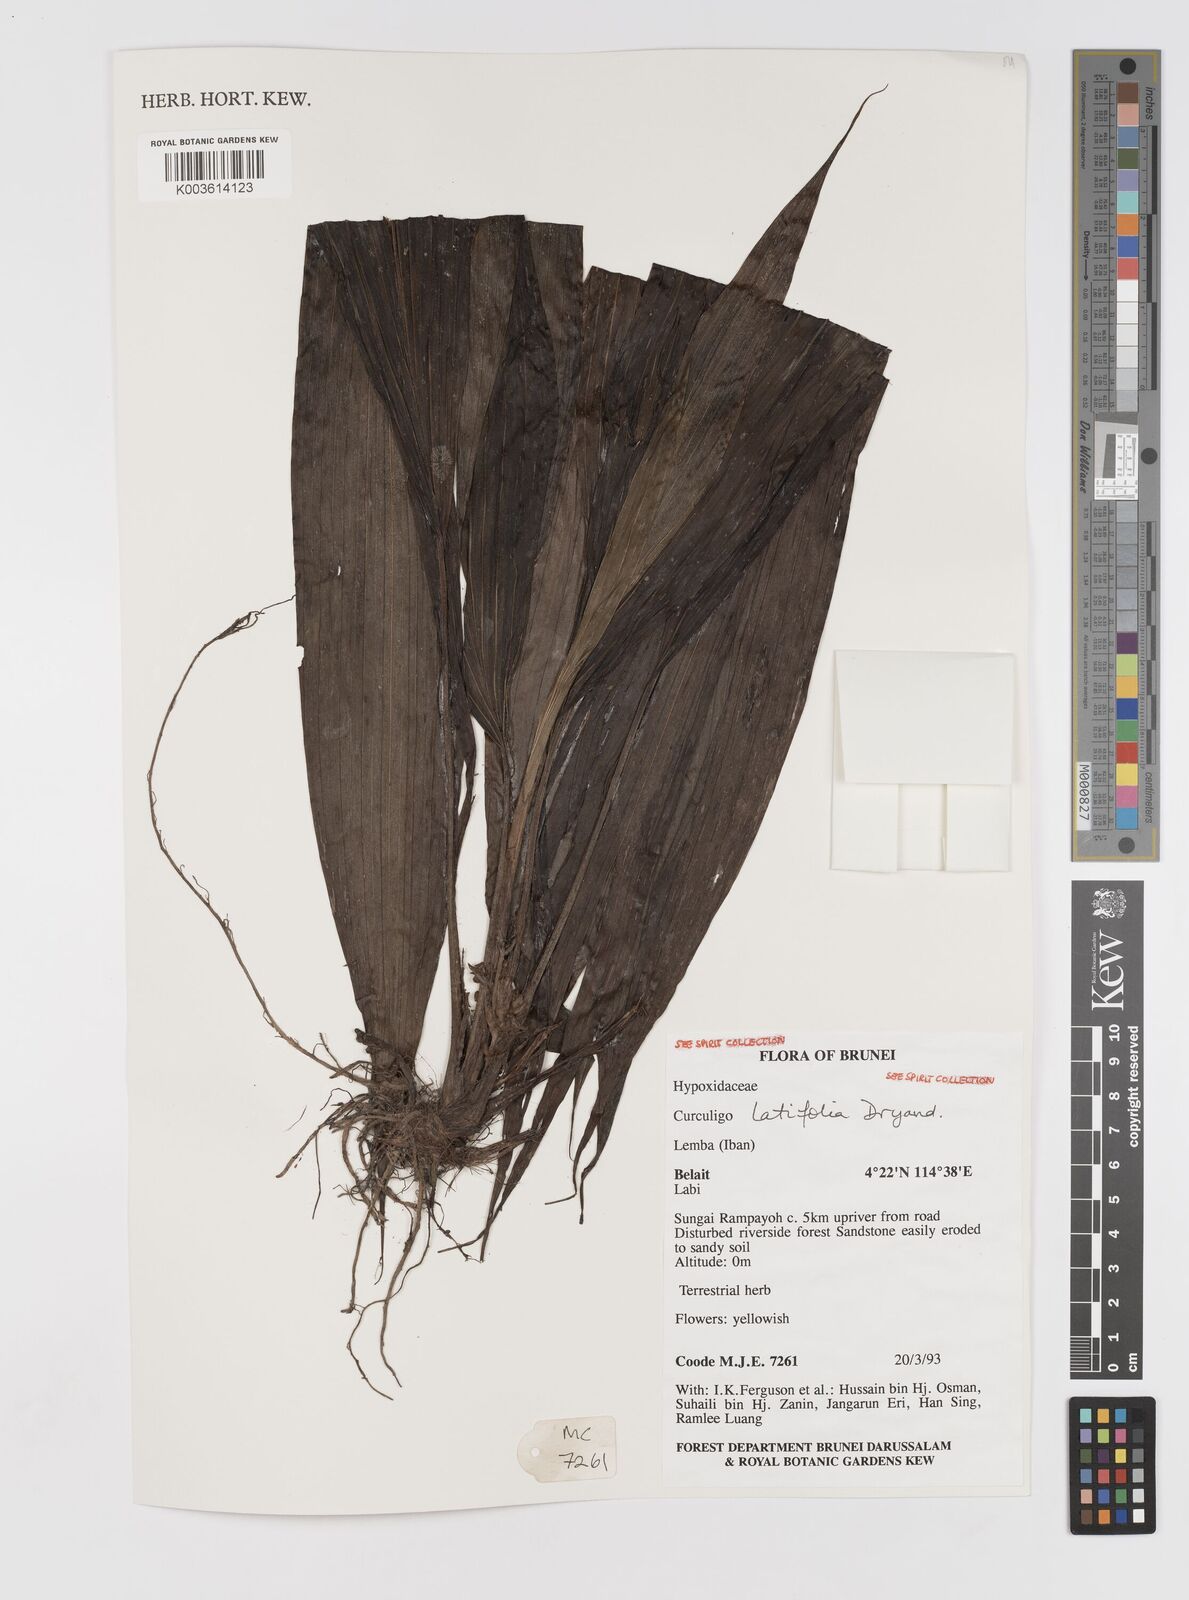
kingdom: Plantae
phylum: Tracheophyta
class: Liliopsida
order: Asparagales
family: Hypoxidaceae
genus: Curculigo
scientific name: Curculigo latifolia
